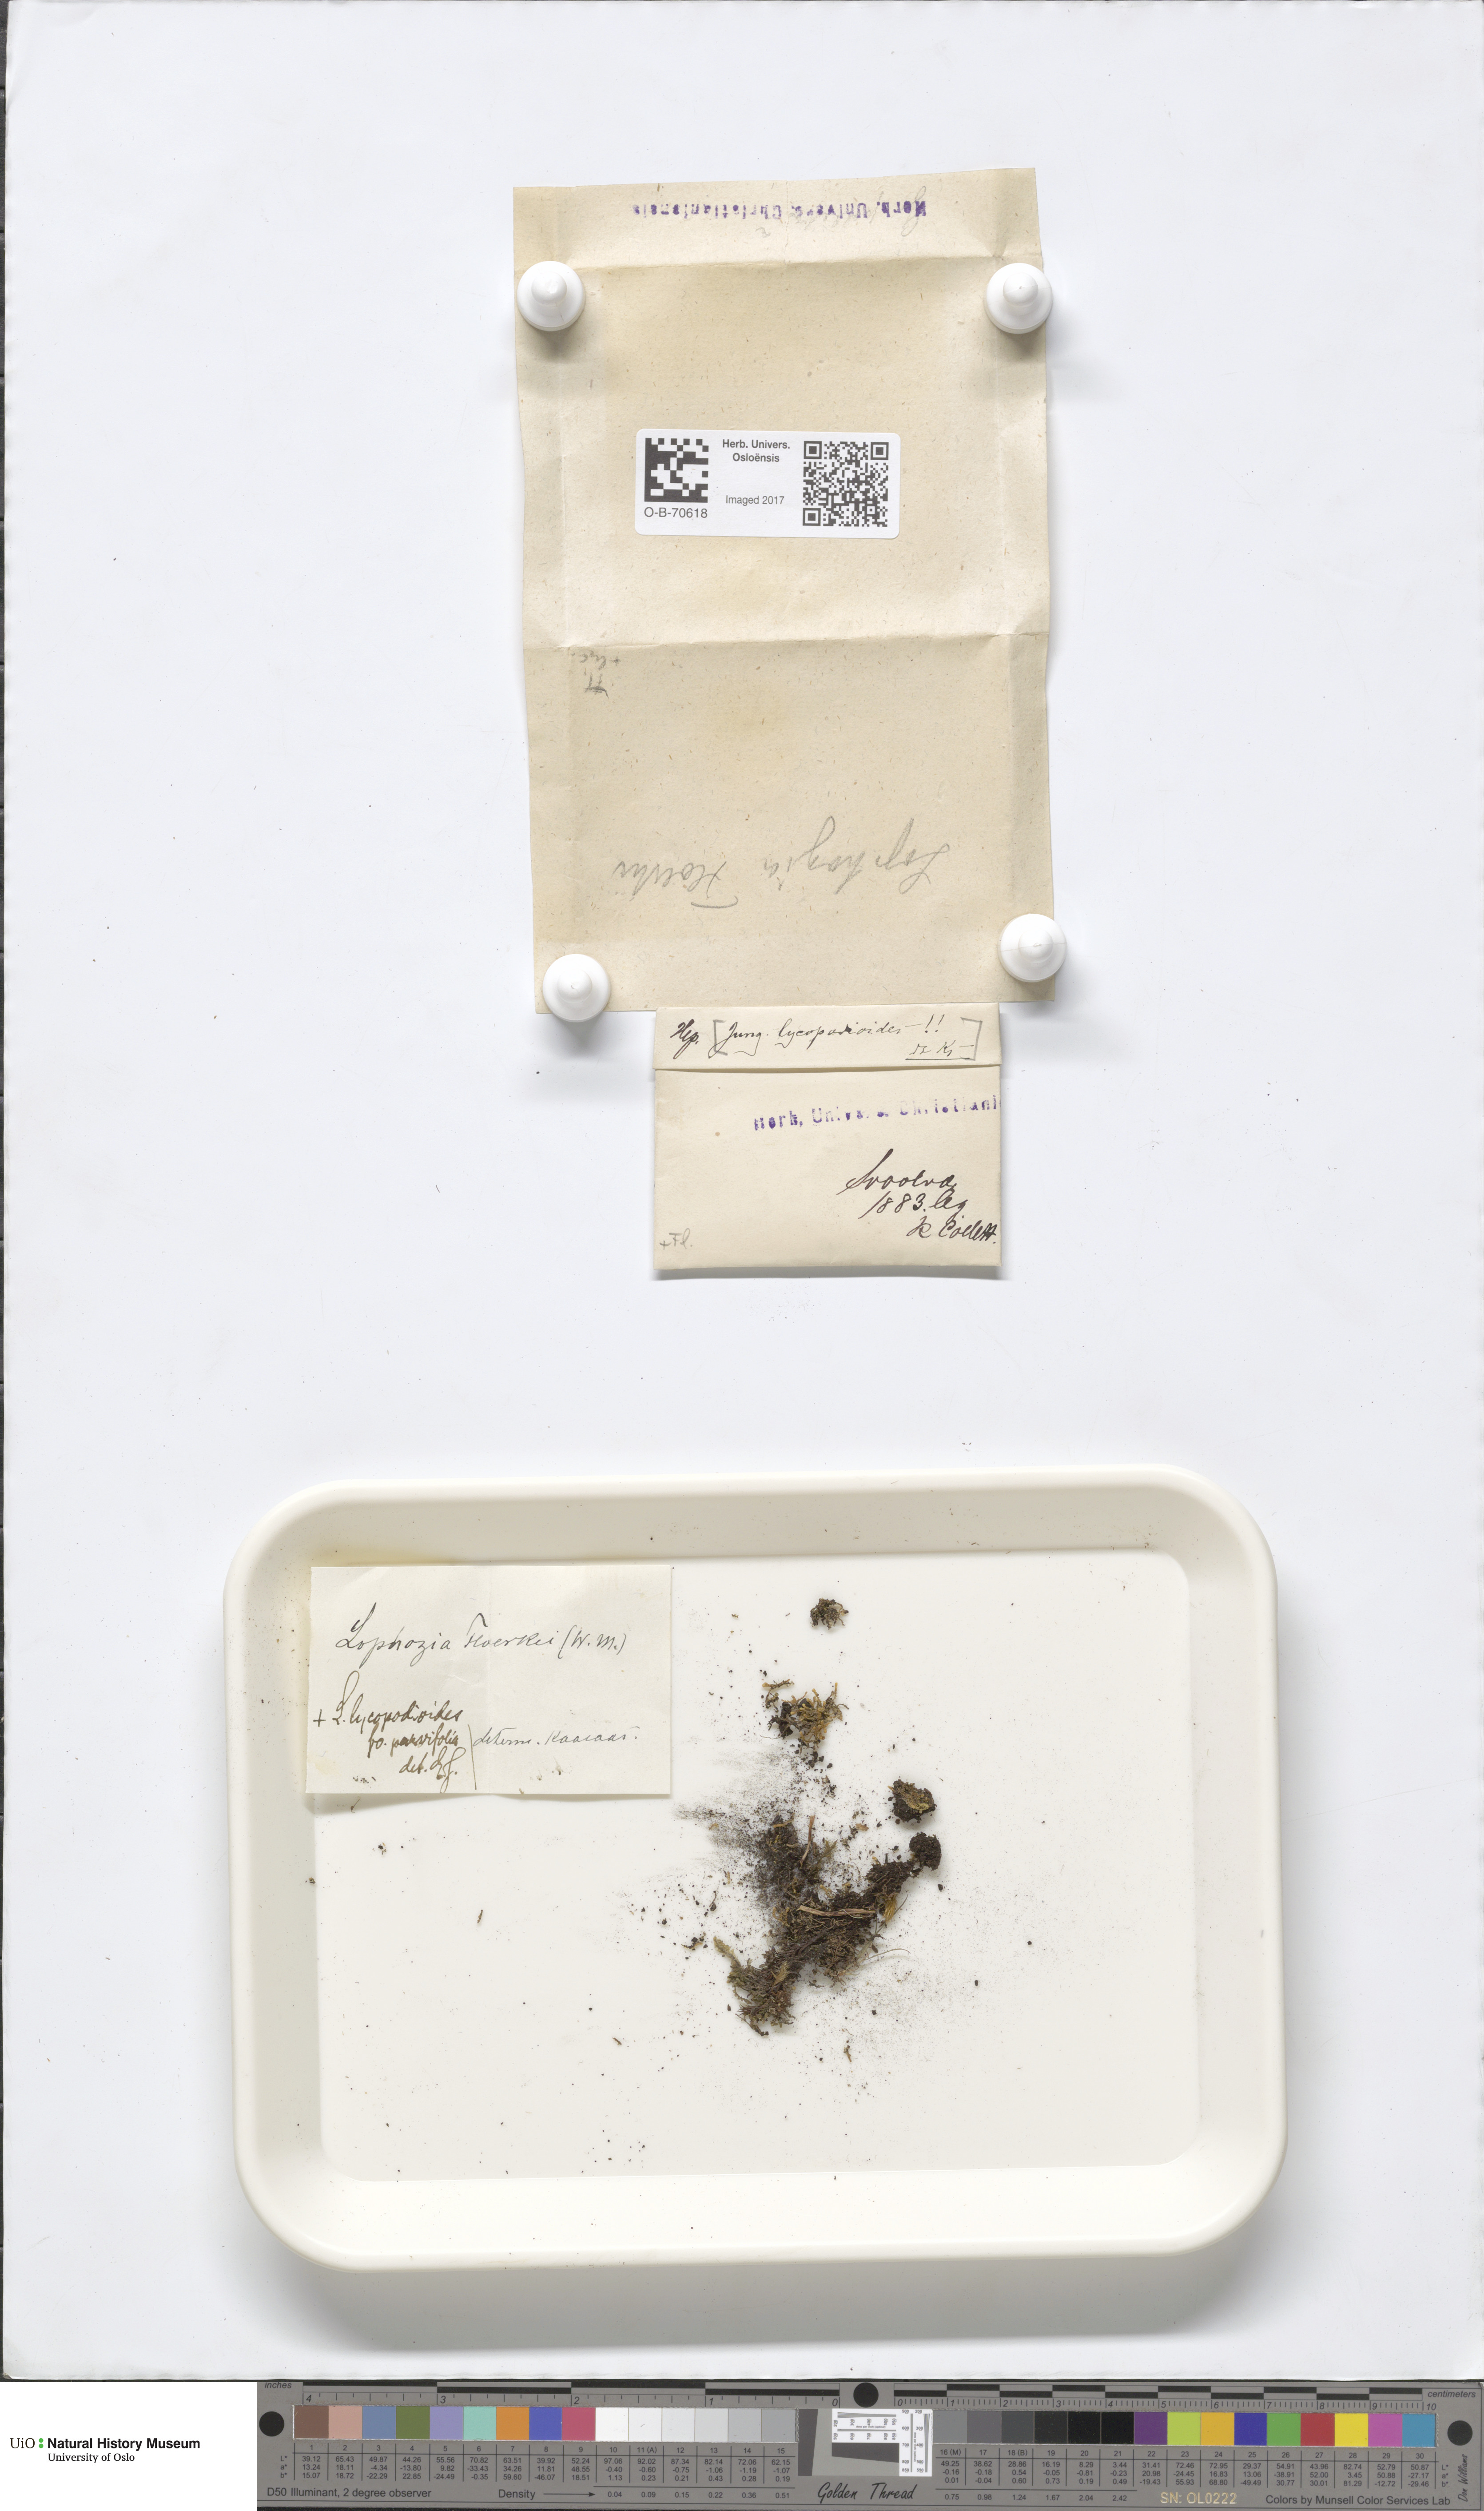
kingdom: Plantae
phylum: Marchantiophyta
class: Jungermanniopsida
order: Jungermanniales
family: Anastrophyllaceae
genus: Barbilophozia
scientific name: Barbilophozia lycopodioides
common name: Greater pawwort
